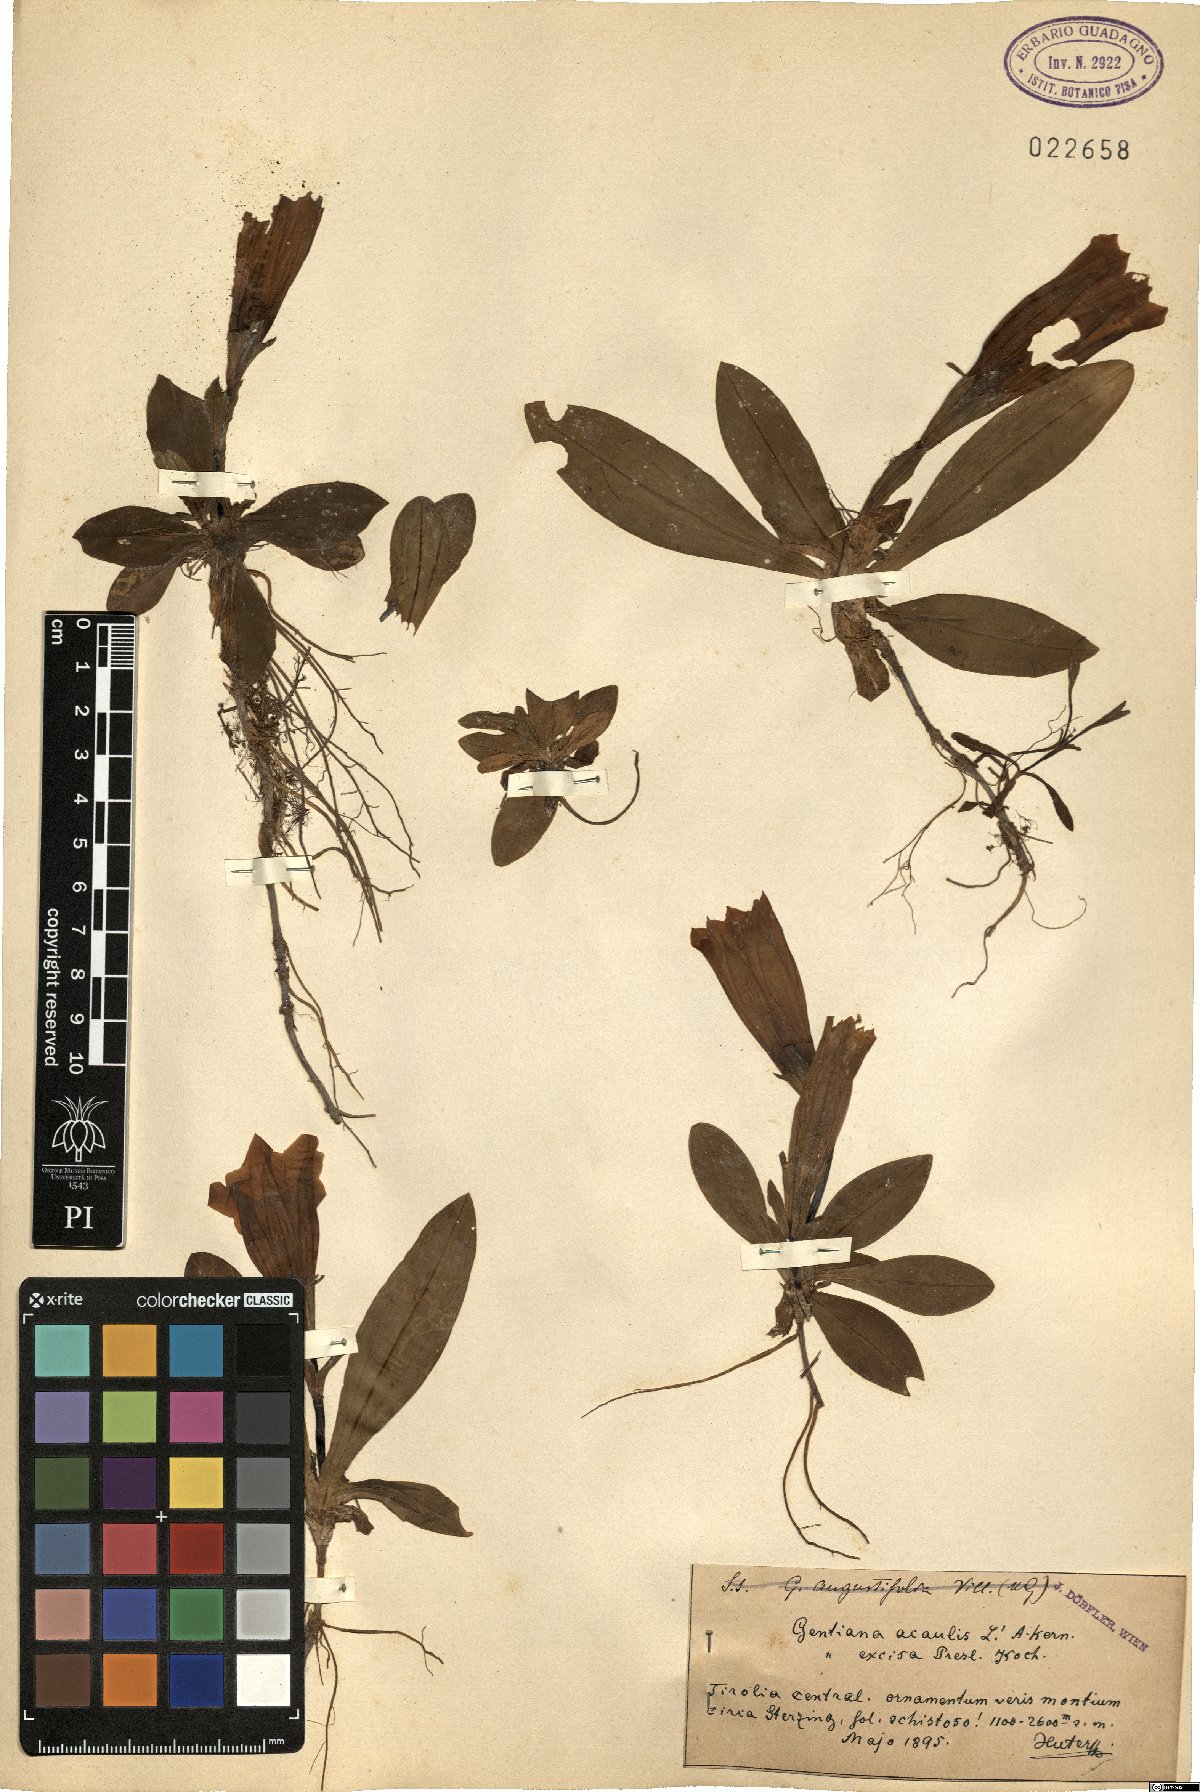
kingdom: Plantae
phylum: Tracheophyta
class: Magnoliopsida
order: Gentianales
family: Gentianaceae
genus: Gentiana
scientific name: Gentiana acaulis
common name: Trumpet gentian
